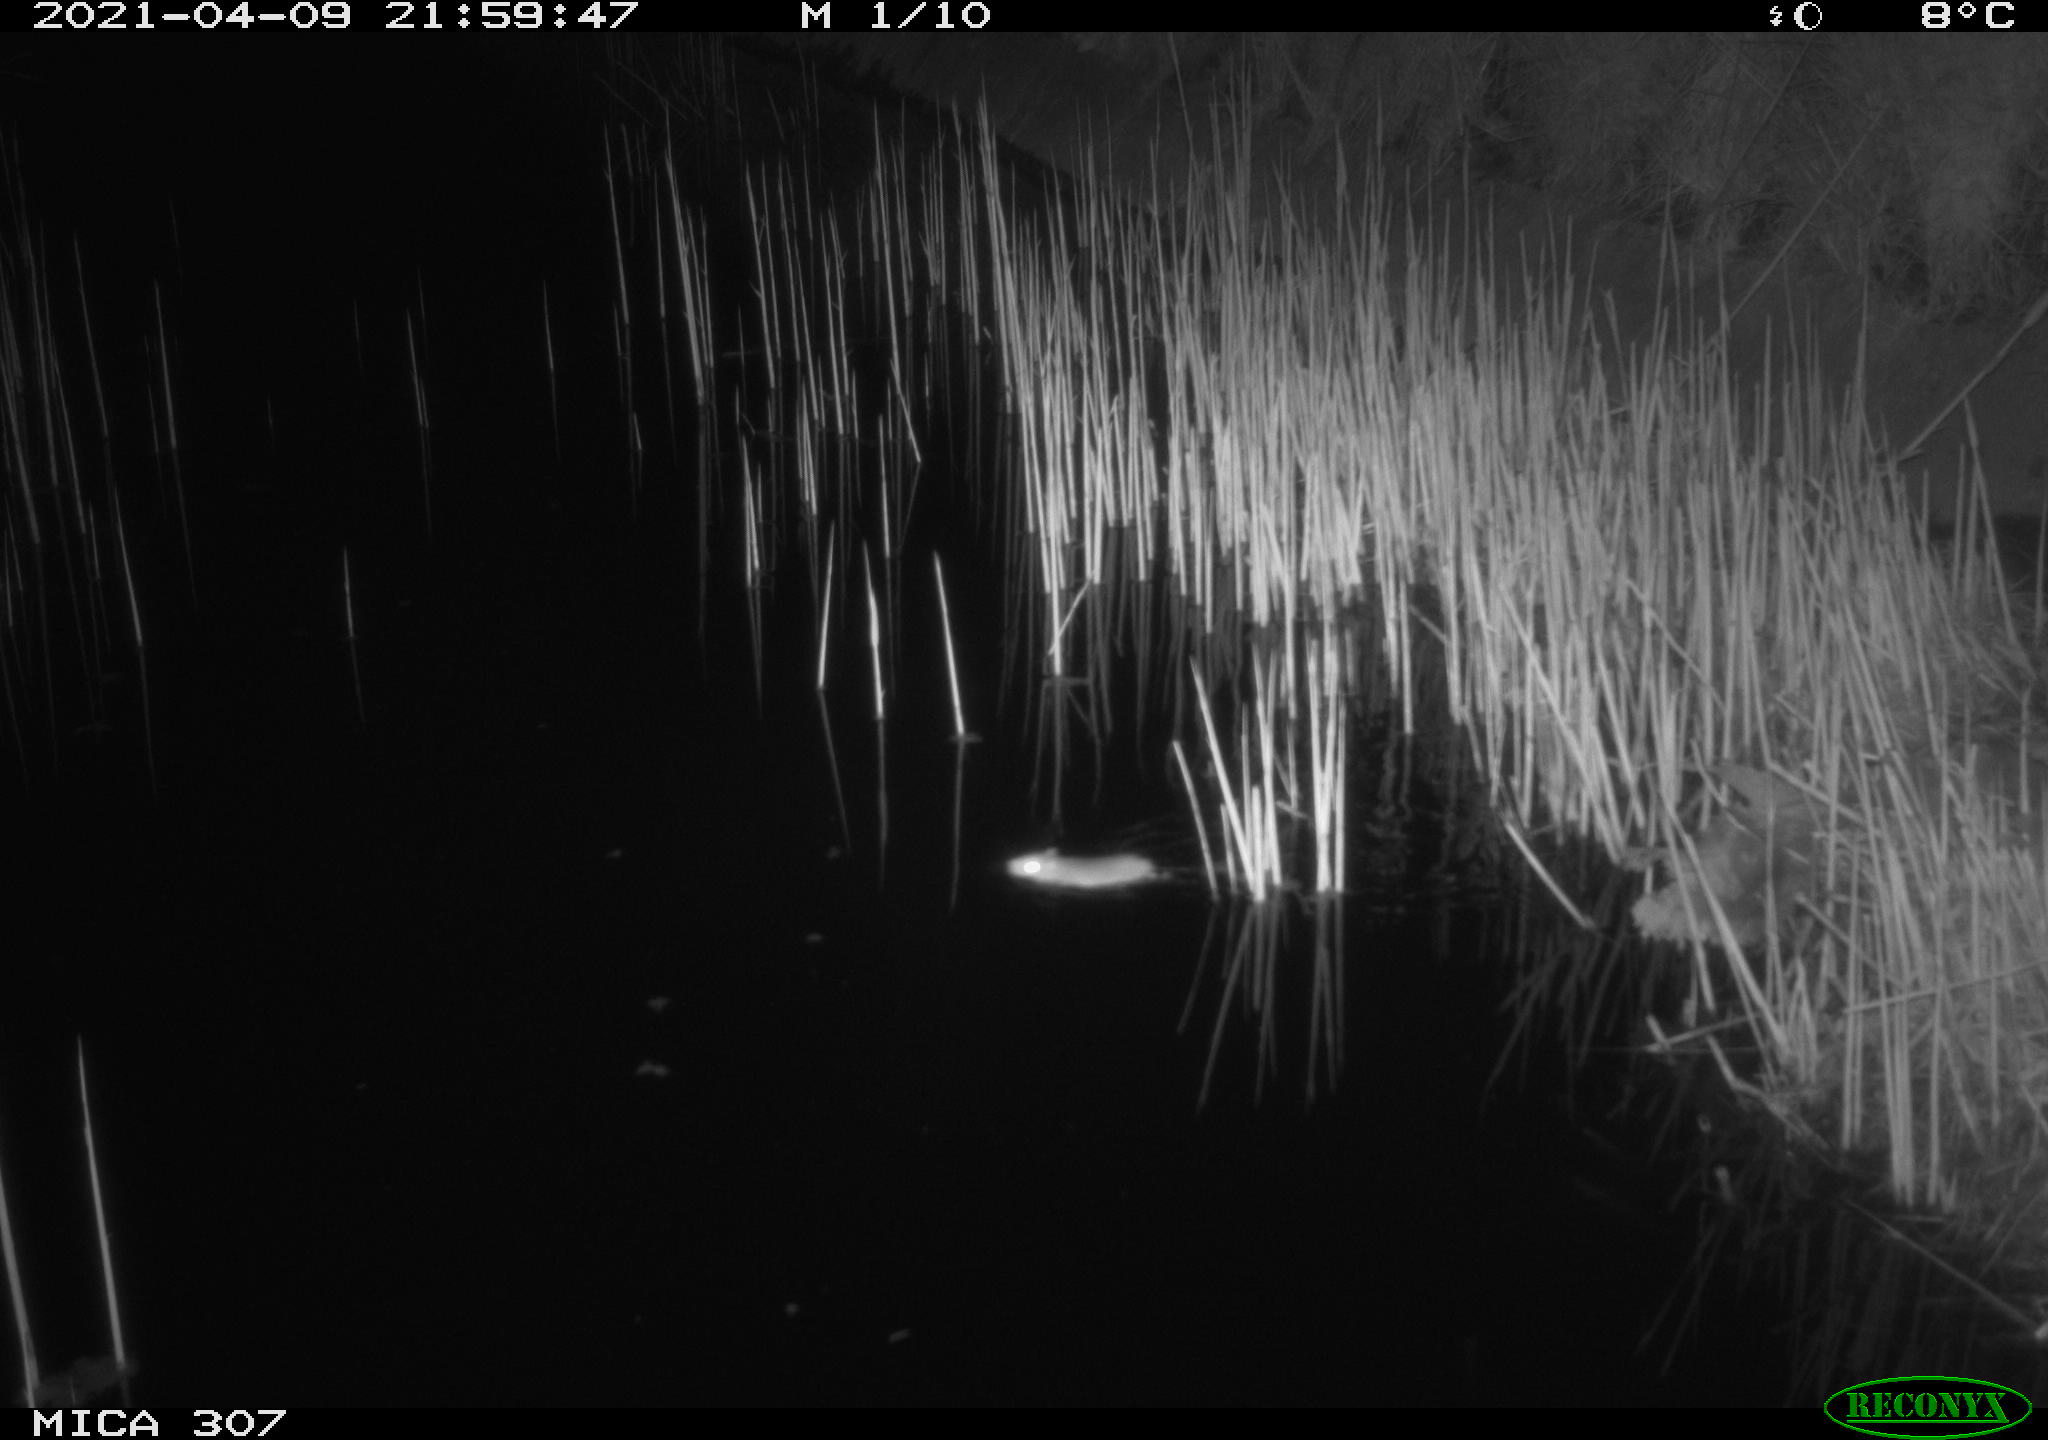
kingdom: Animalia
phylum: Chordata
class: Mammalia
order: Rodentia
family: Muridae
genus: Rattus
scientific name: Rattus norvegicus
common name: Brown rat
